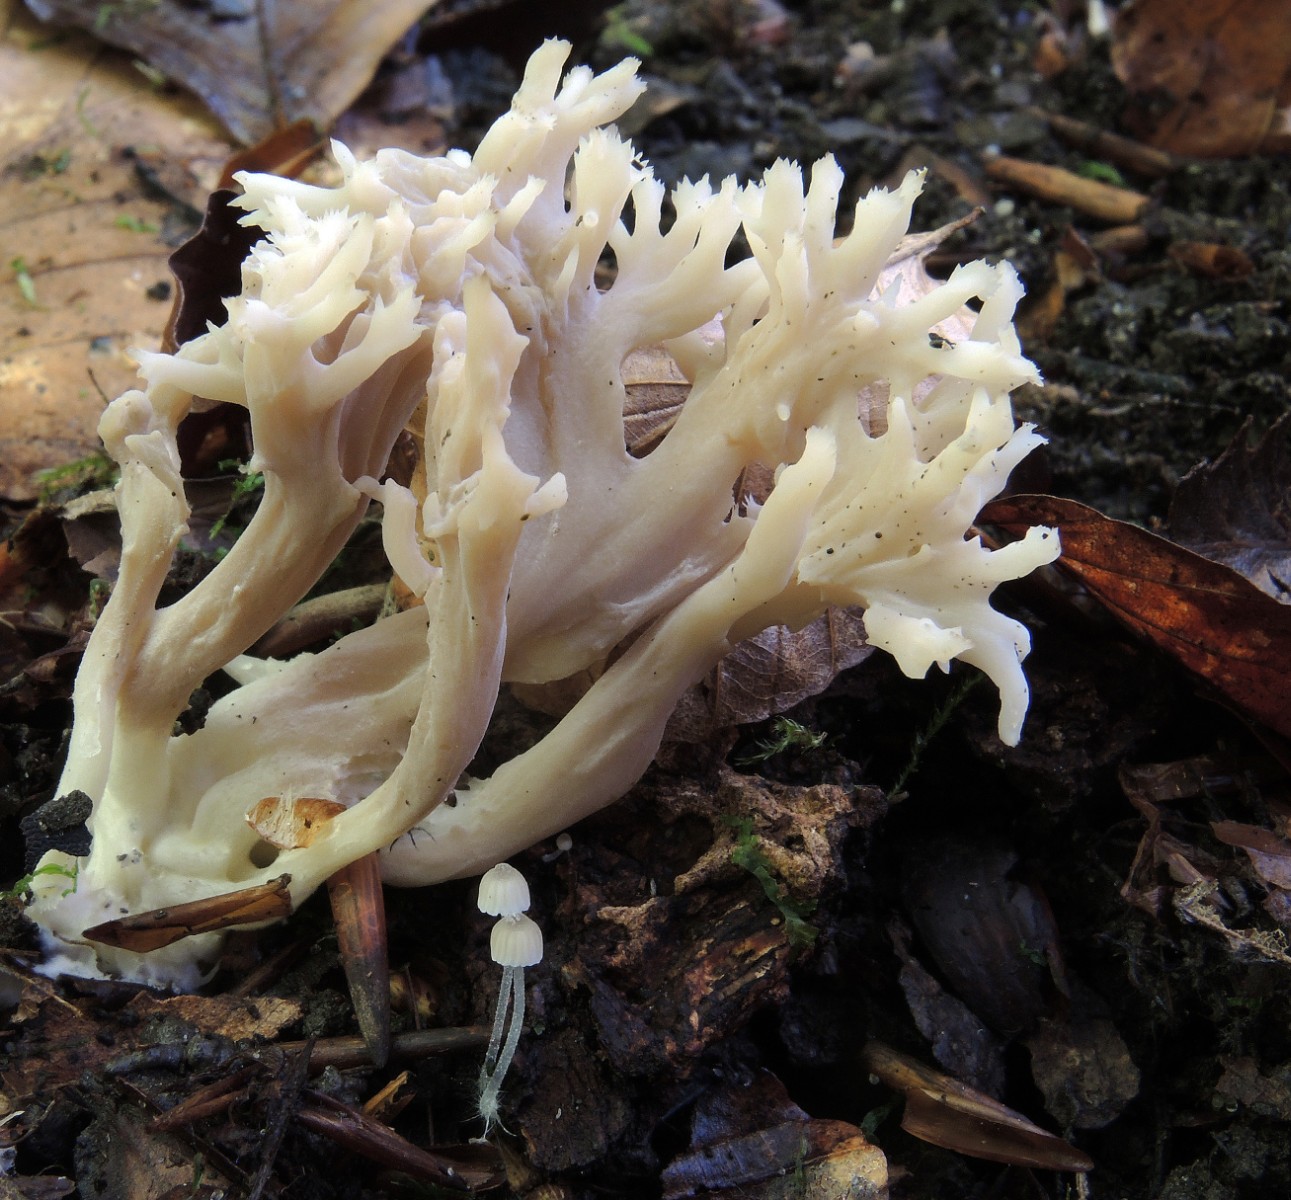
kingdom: Fungi
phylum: Basidiomycota
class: Agaricomycetes
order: Cantharellales
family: Hydnaceae
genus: Clavulina
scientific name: Clavulina
